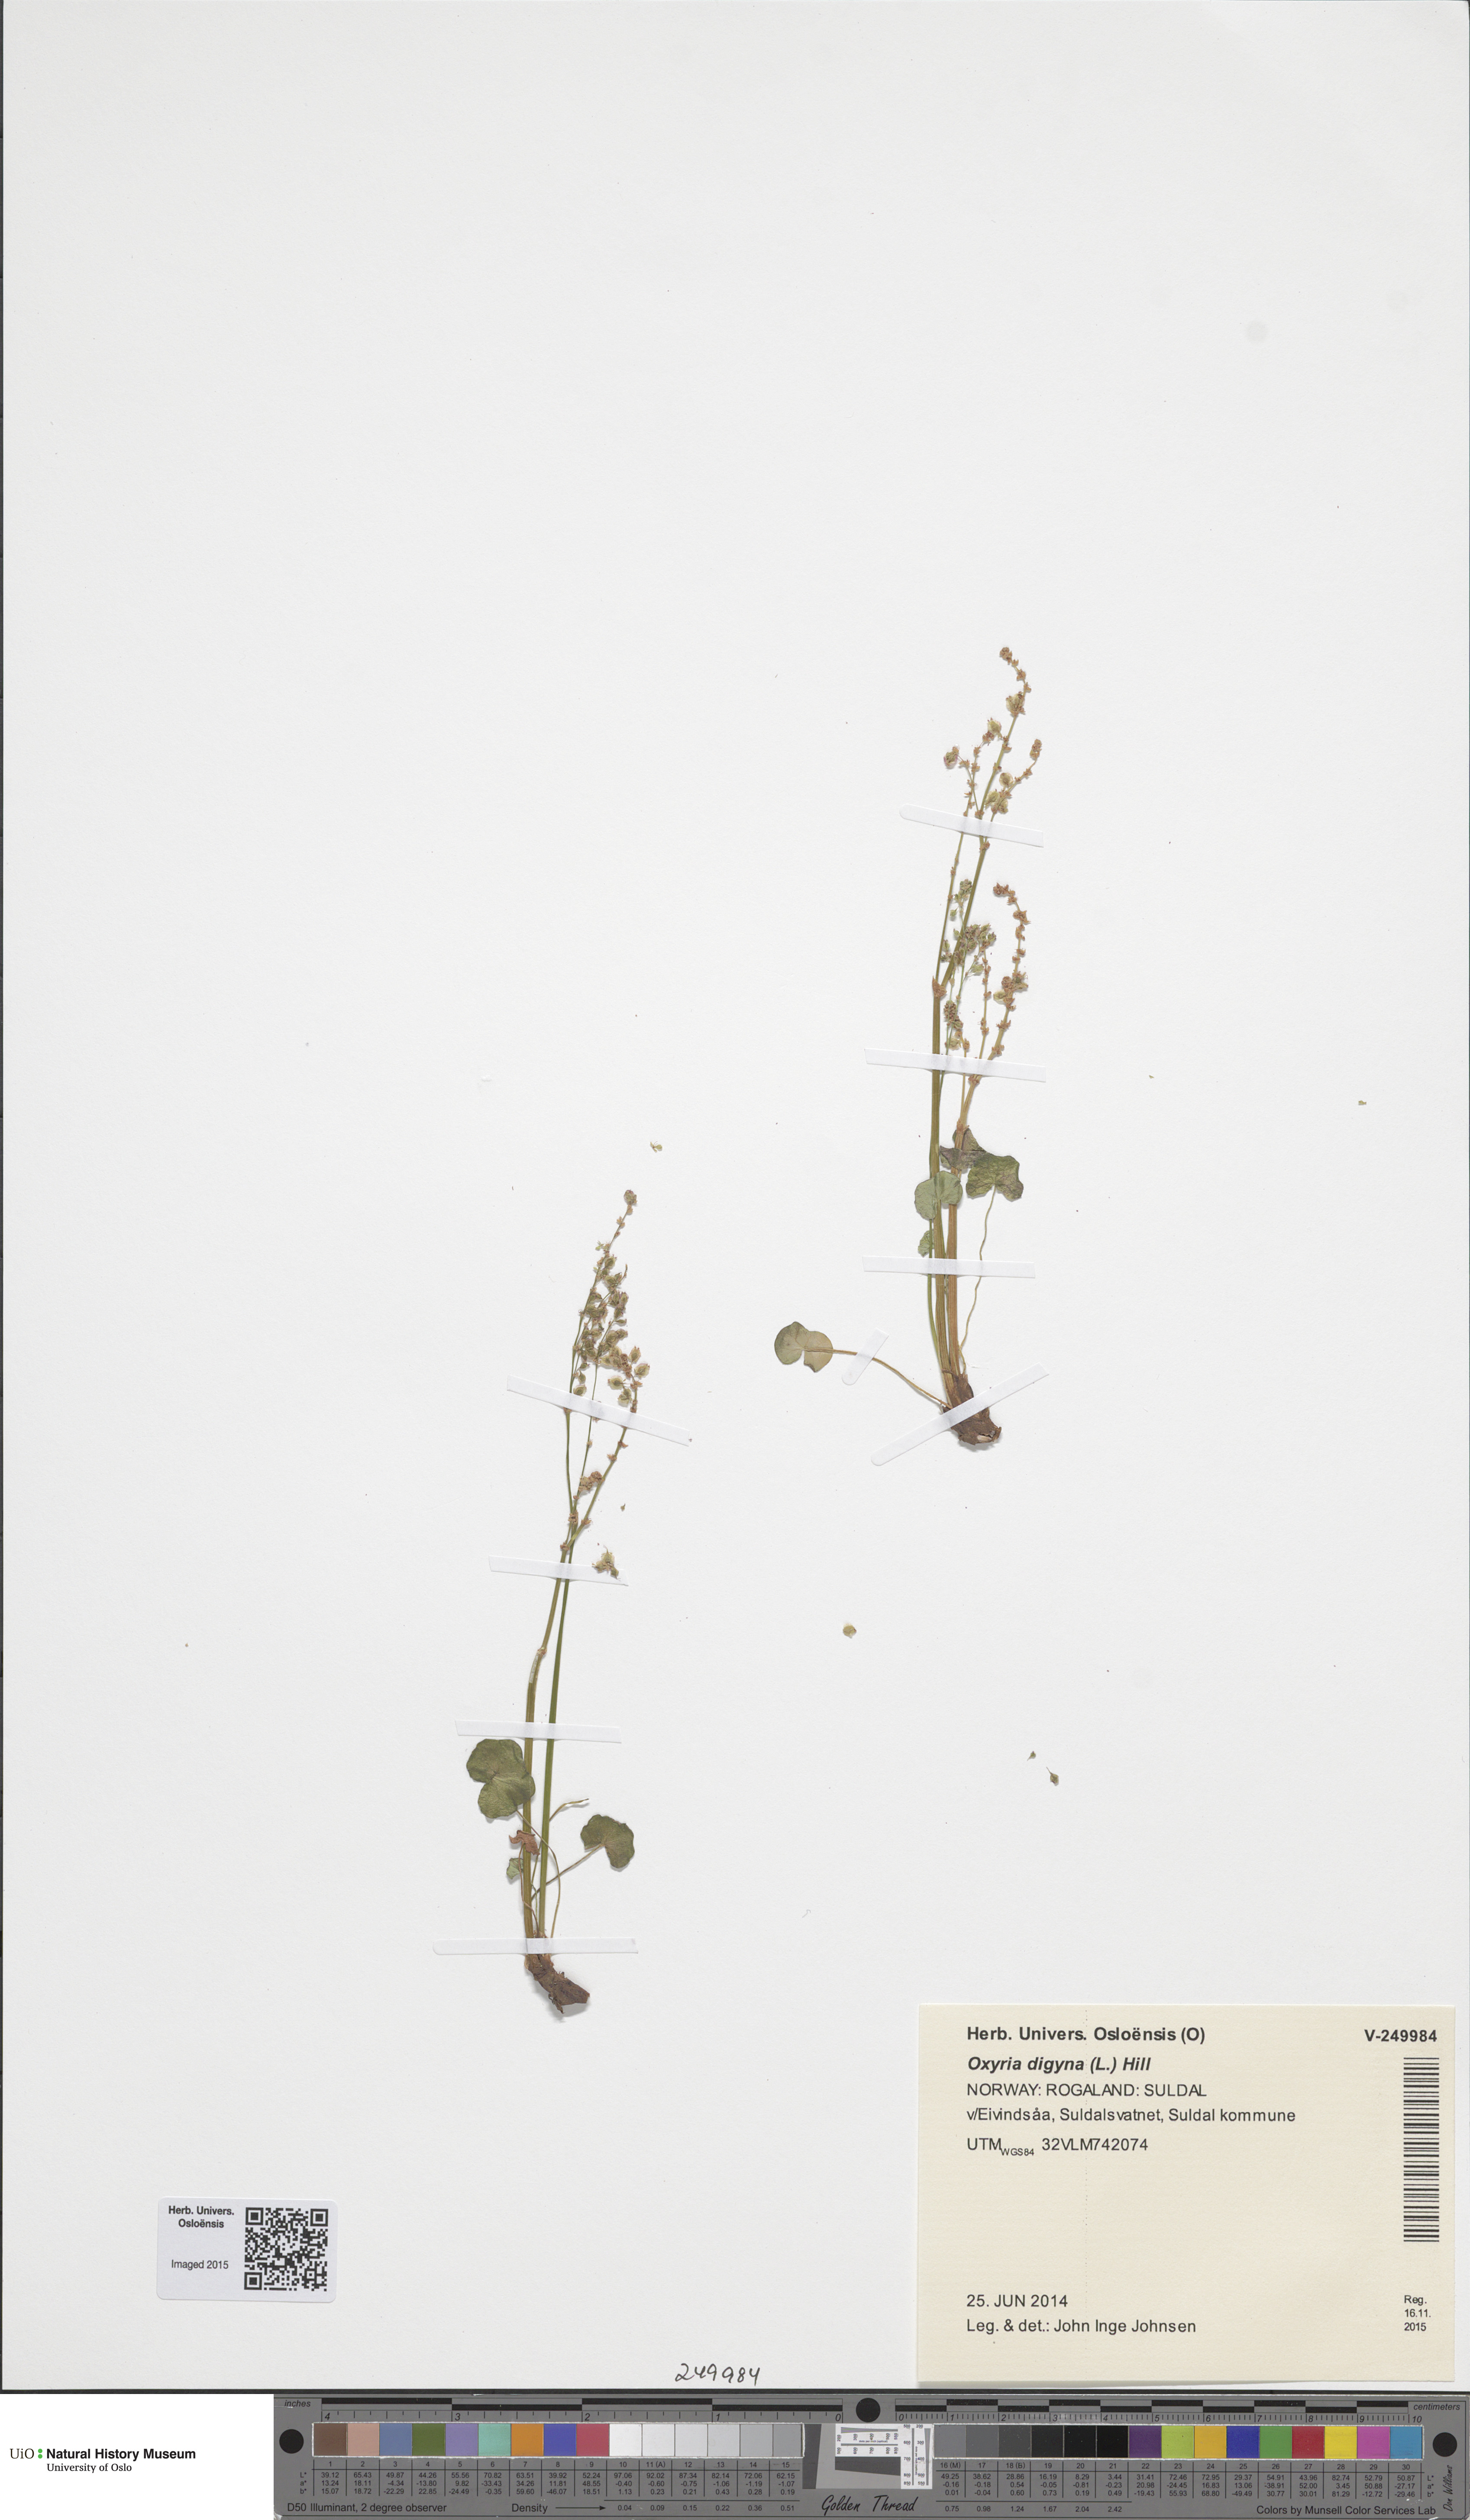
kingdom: Plantae
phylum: Tracheophyta
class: Magnoliopsida
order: Caryophyllales
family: Polygonaceae
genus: Oxyria
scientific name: Oxyria digyna
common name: Alpine mountain-sorrel
